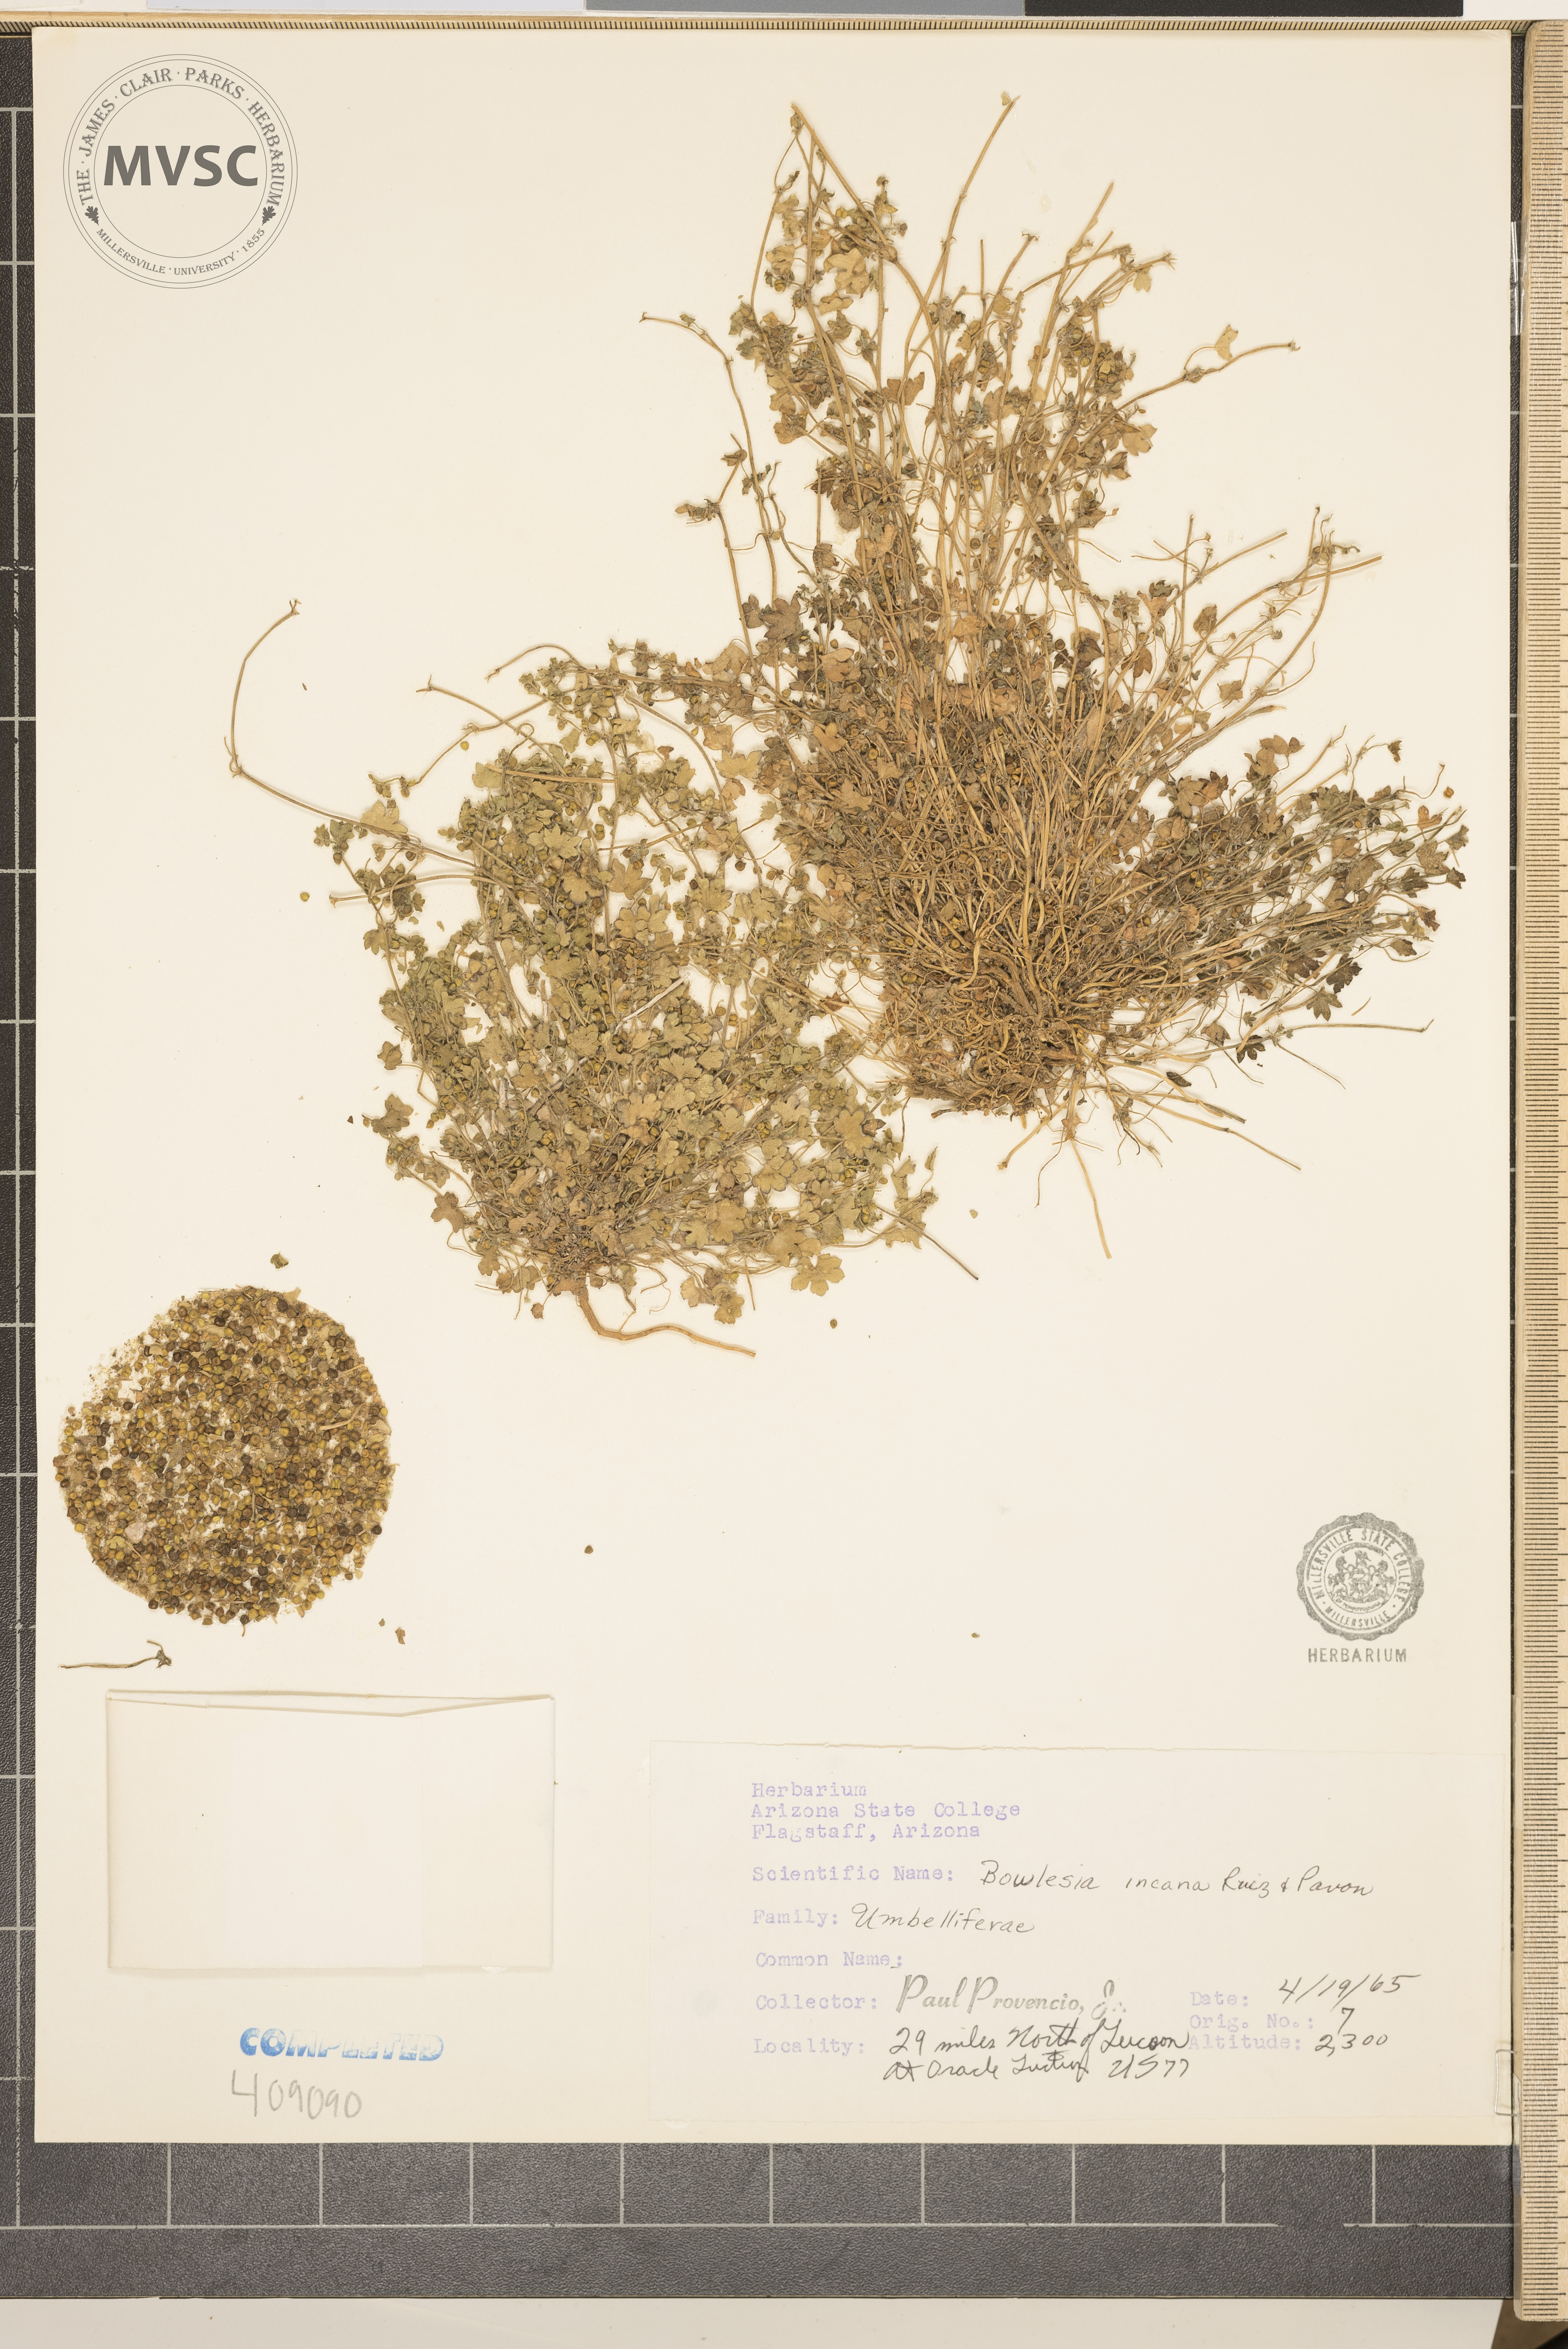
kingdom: Plantae
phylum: Tracheophyta
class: Magnoliopsida
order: Apiales
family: Apiaceae
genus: Bowlesia
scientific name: Bowlesia incana
